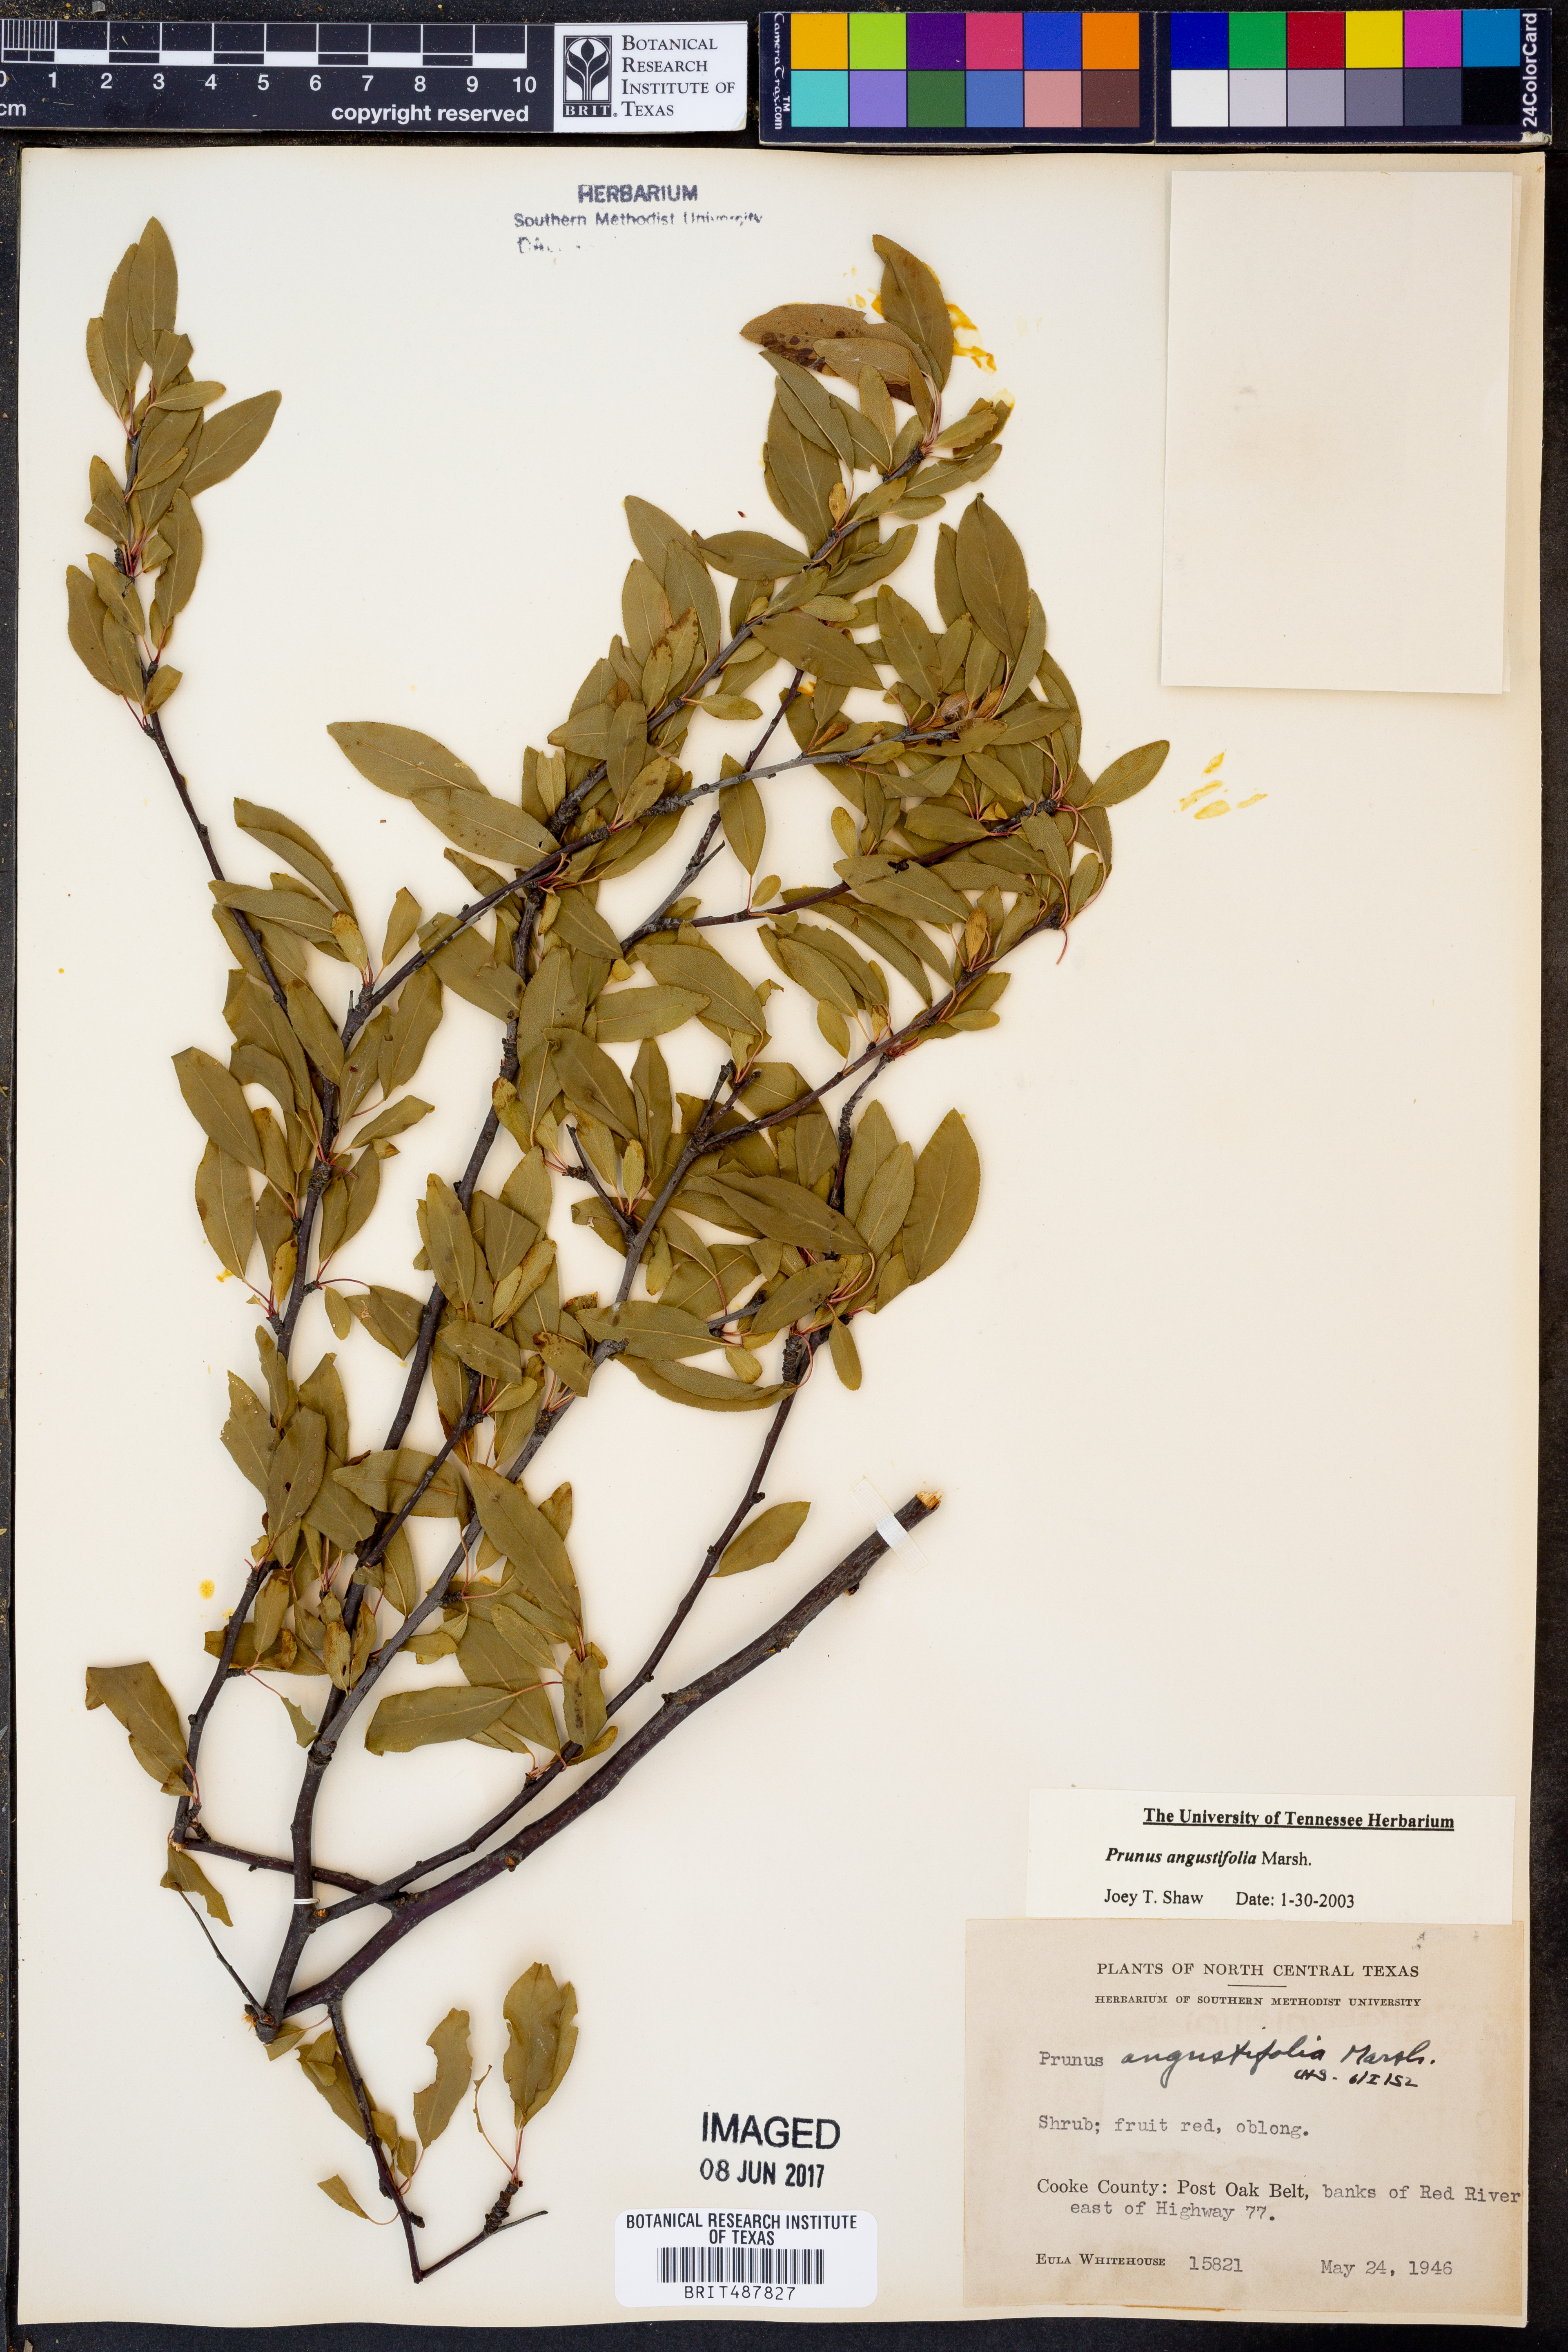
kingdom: Plantae
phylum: Tracheophyta
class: Magnoliopsida
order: Rosales
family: Rosaceae
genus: Prunus
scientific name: Prunus angustifolia
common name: Cherokee plum
